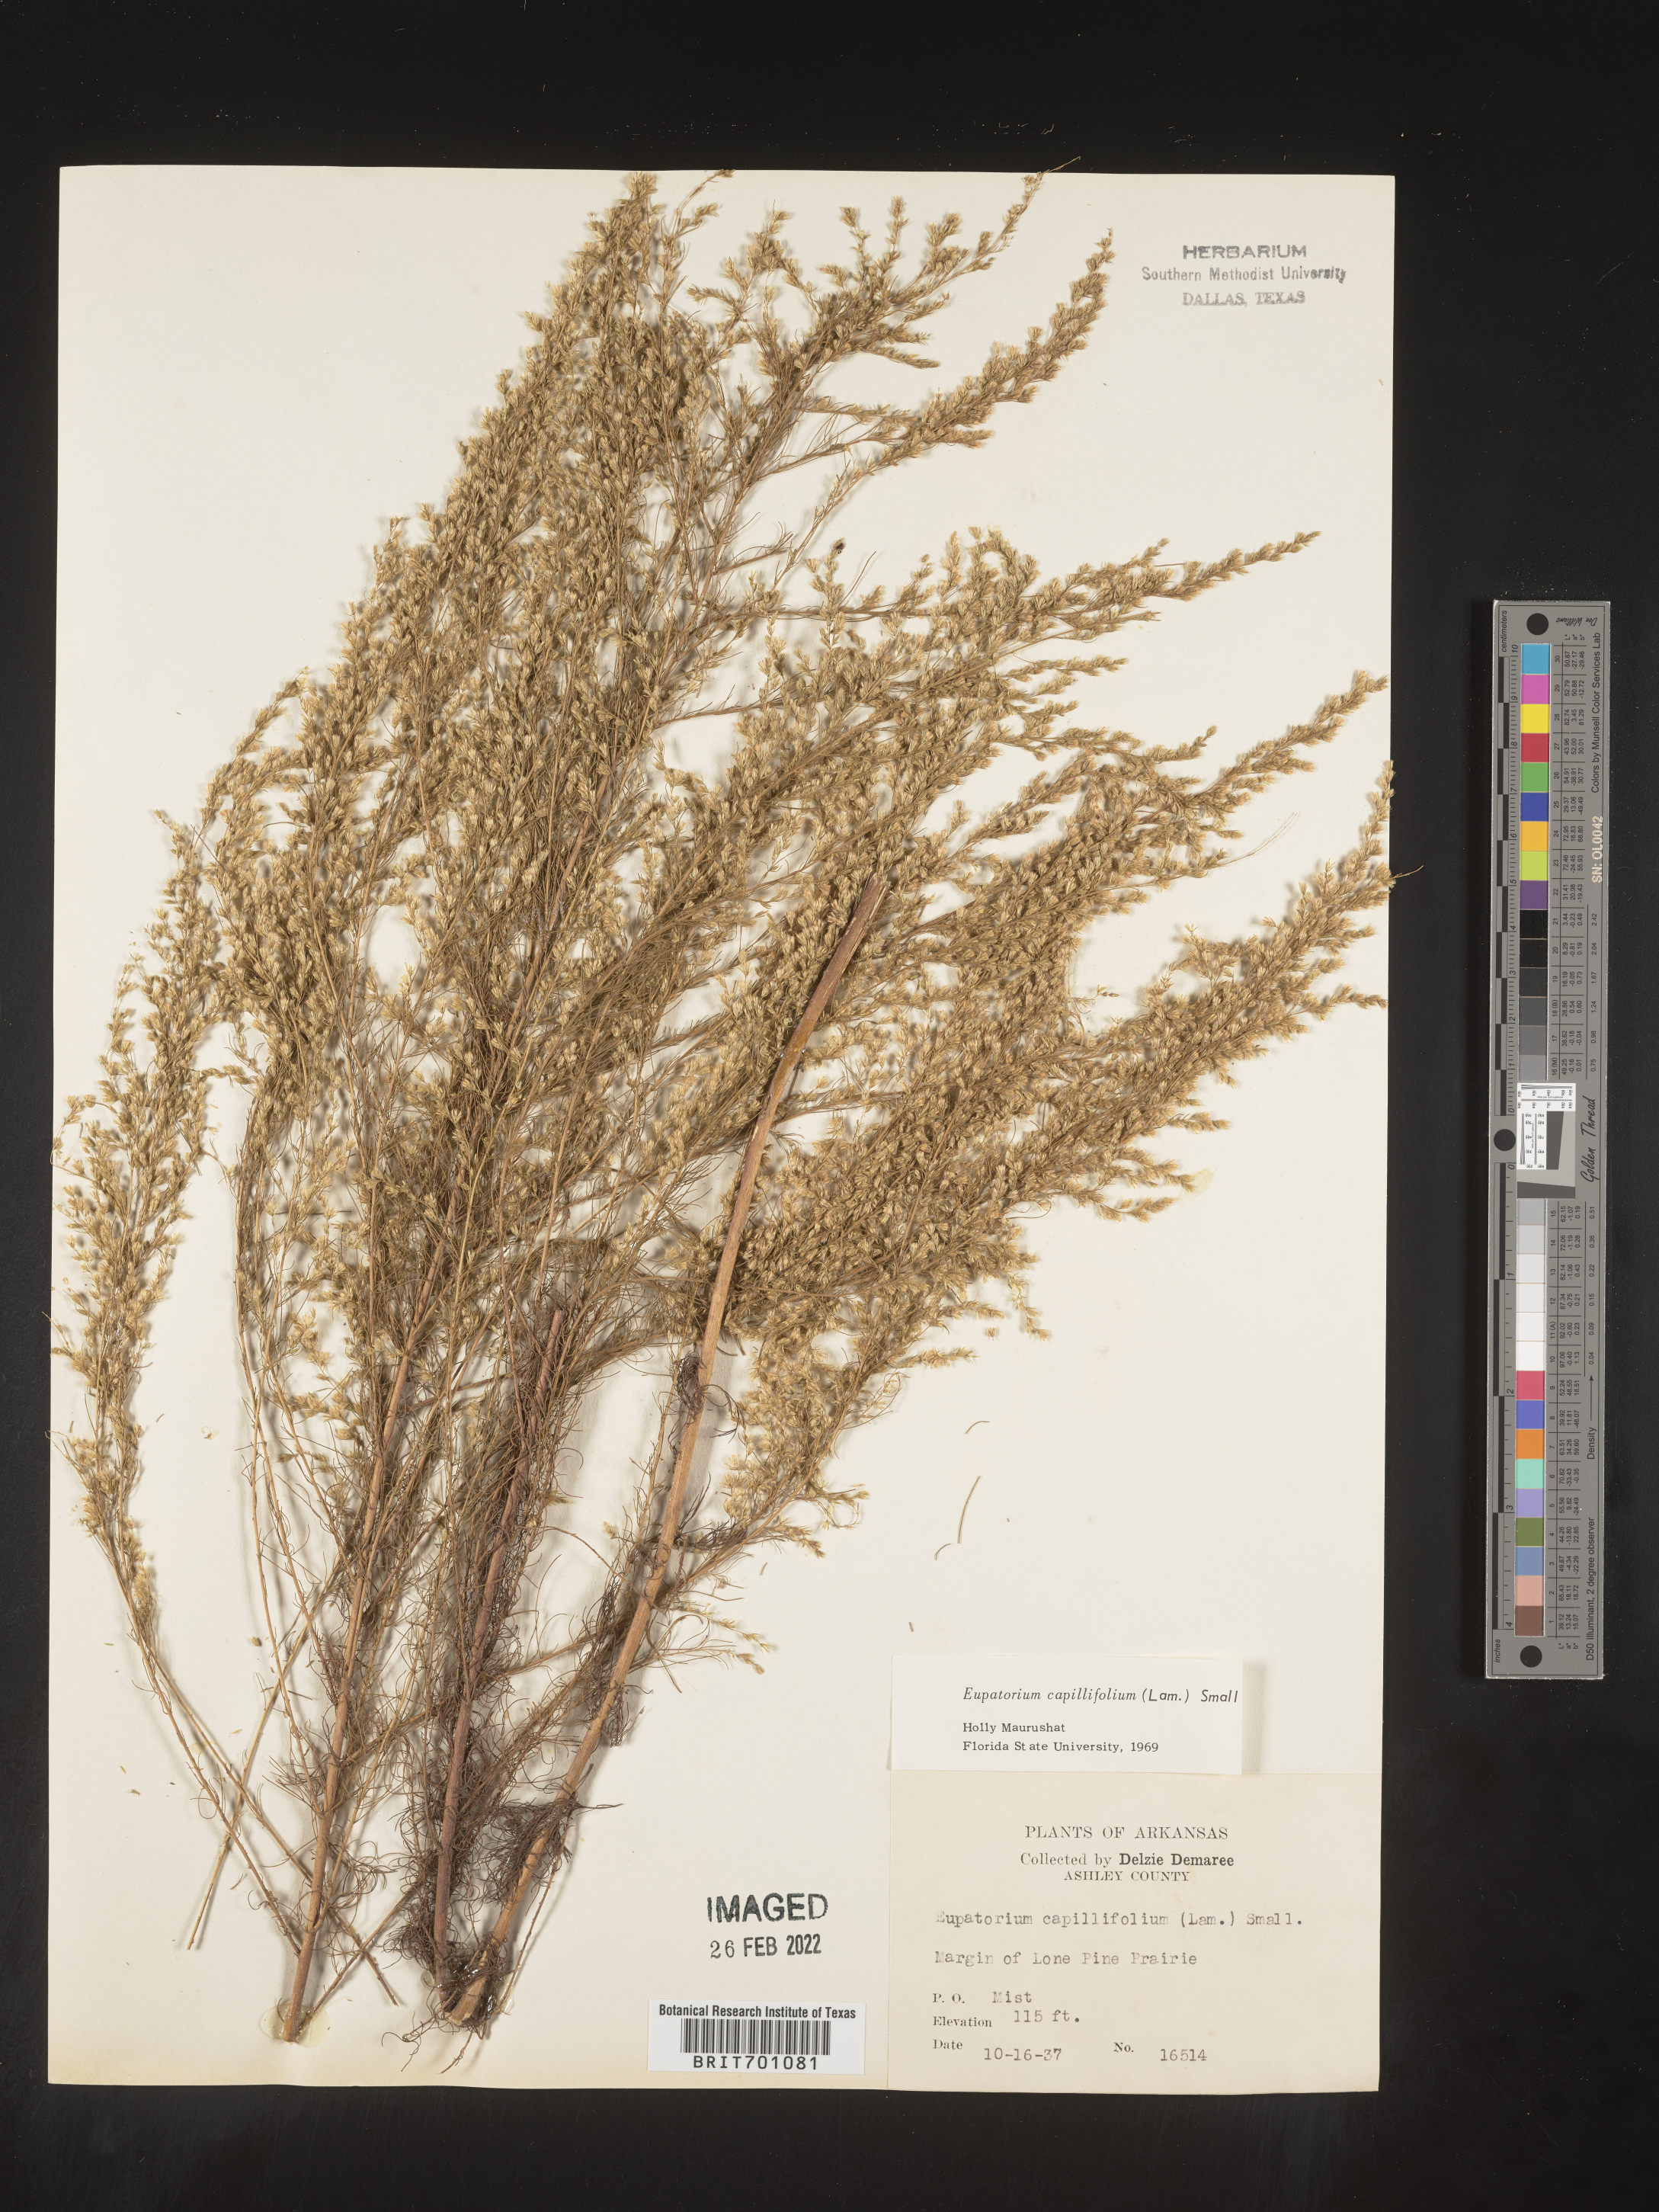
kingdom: Plantae
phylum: Tracheophyta
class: Magnoliopsida
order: Asterales
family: Asteraceae
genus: Eupatorium
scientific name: Eupatorium capillifolium
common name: Dog-fennel
